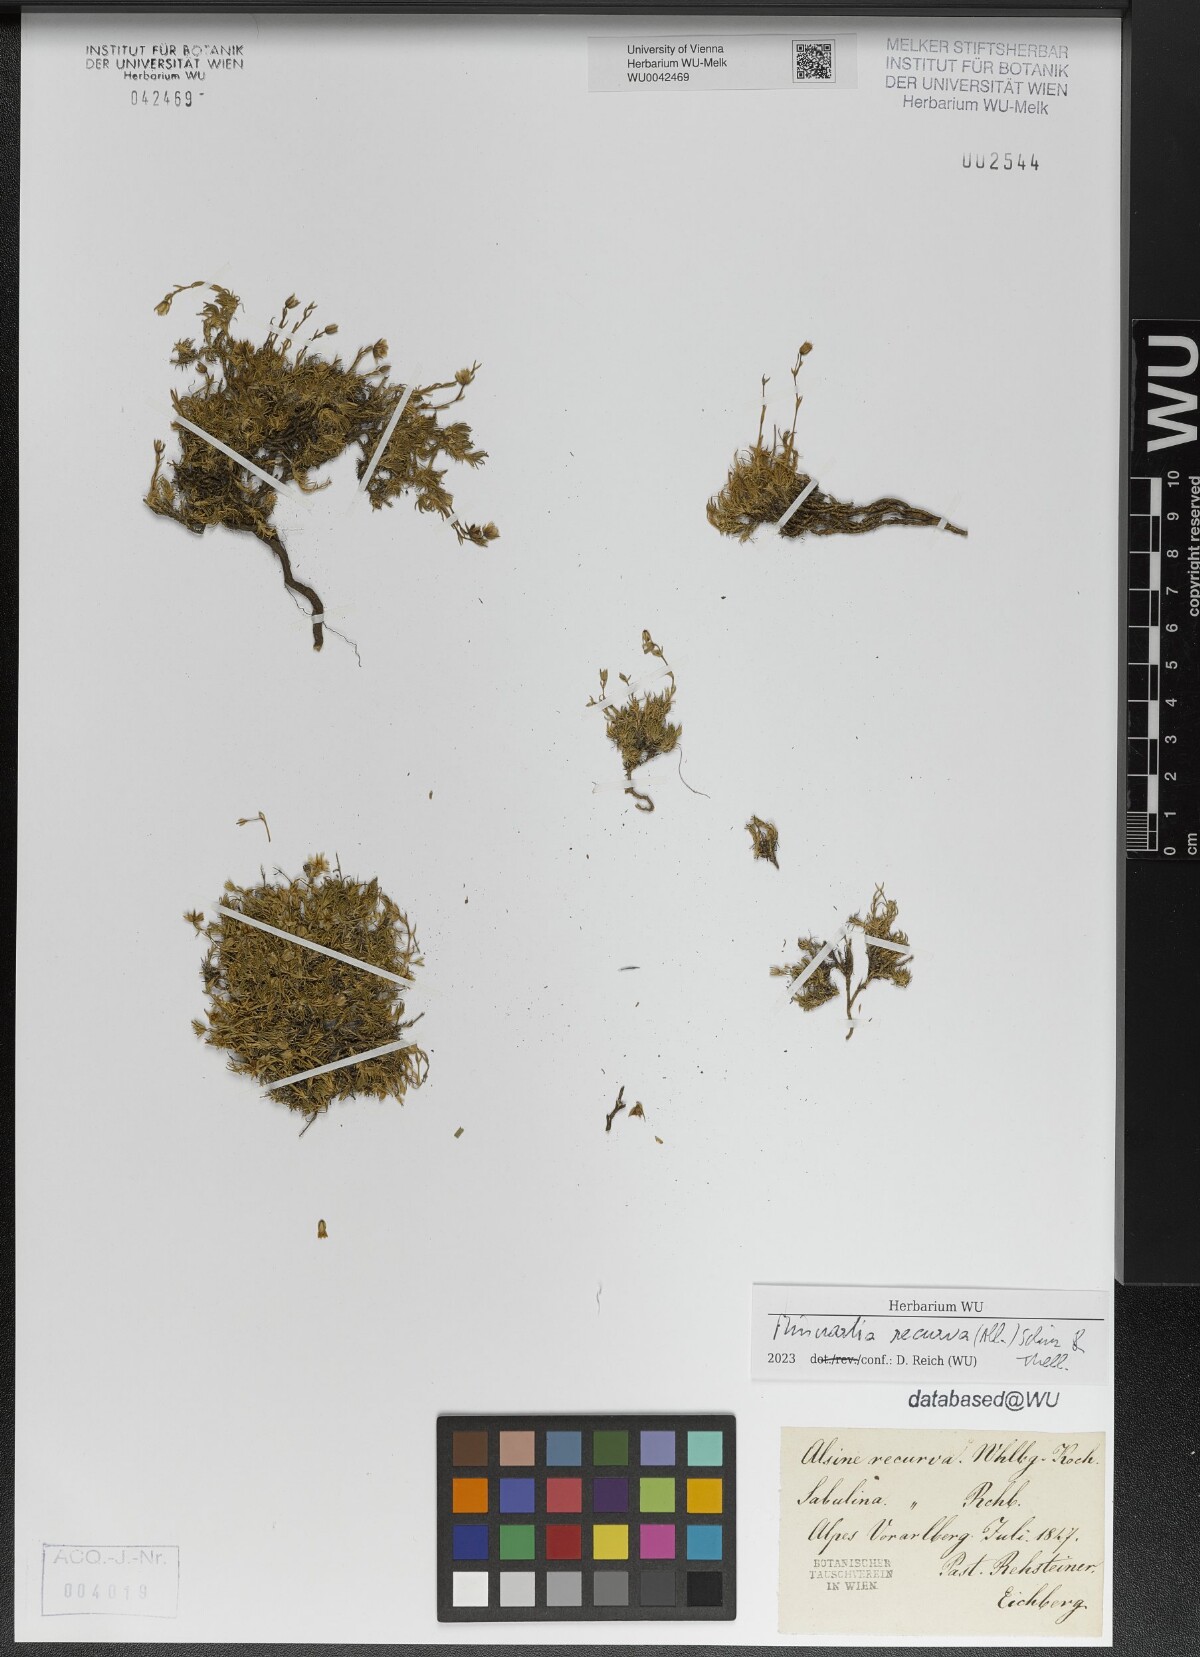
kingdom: Plantae
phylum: Tracheophyta
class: Magnoliopsida
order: Caryophyllales
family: Caryophyllaceae
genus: Minuartia
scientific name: Minuartia recurva
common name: Recurved sandwort
